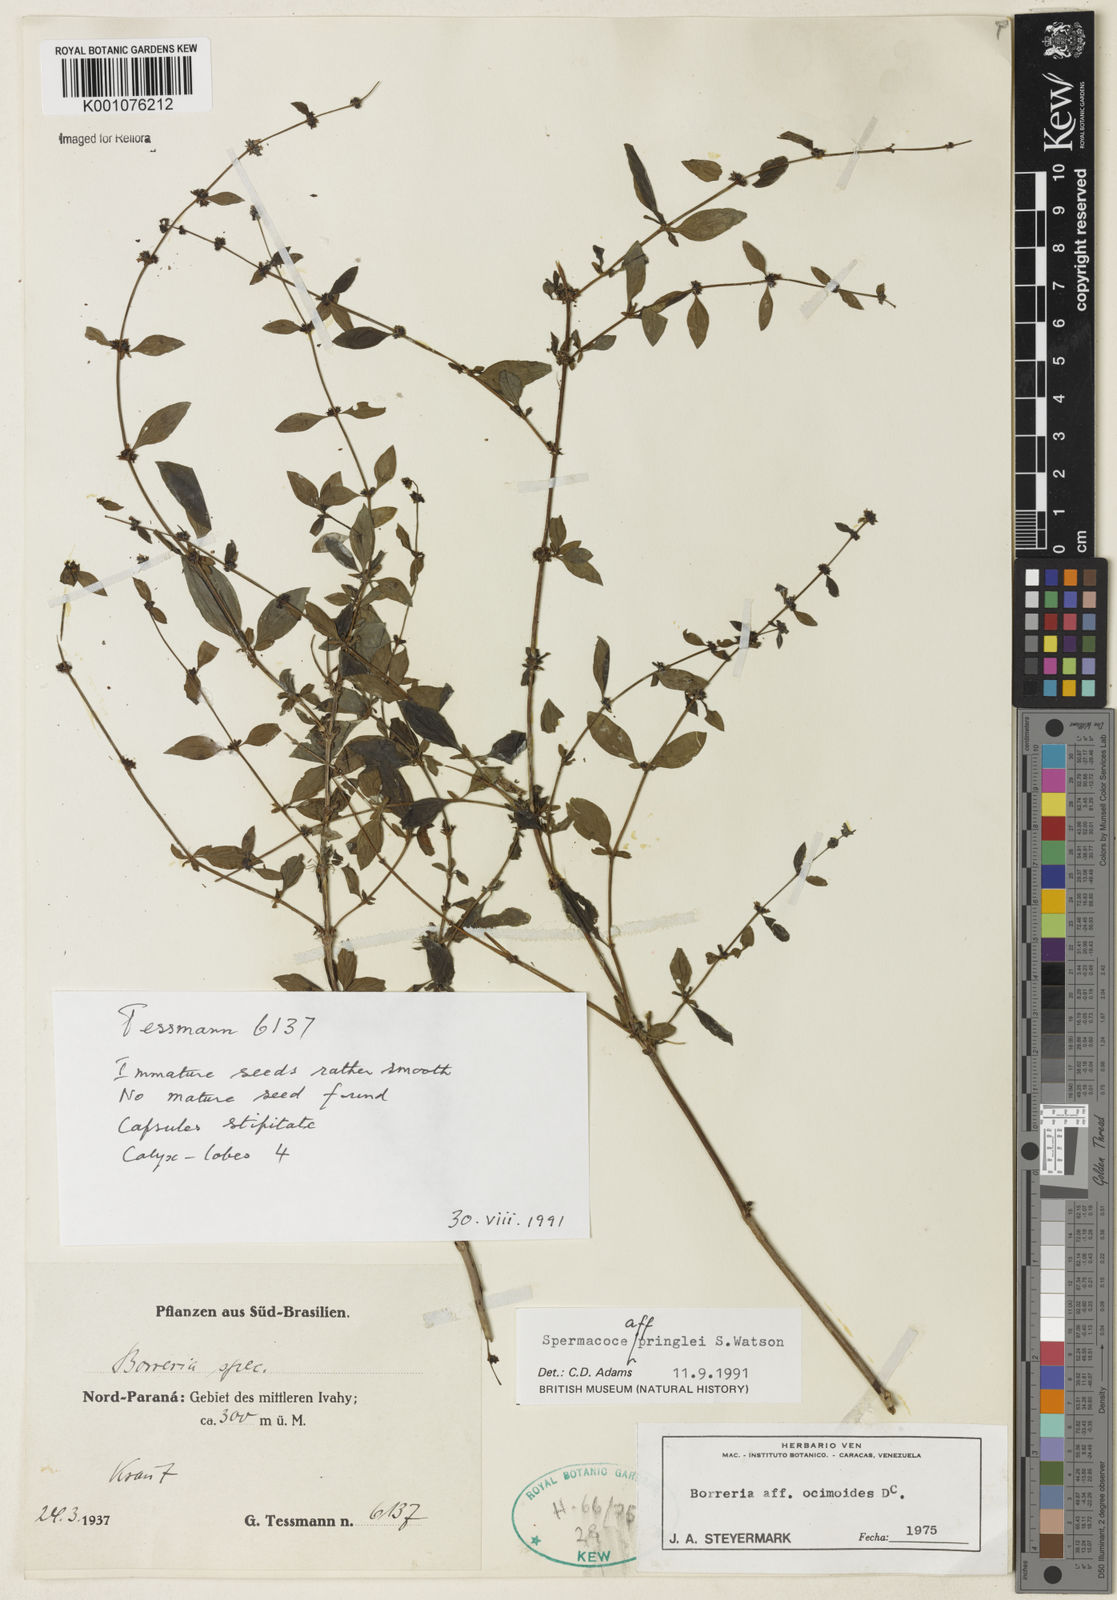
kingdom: Plantae
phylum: Tracheophyta
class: Magnoliopsida
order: Gentianales
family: Rubiaceae
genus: Spermacoce
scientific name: Spermacoce ovalifolia
